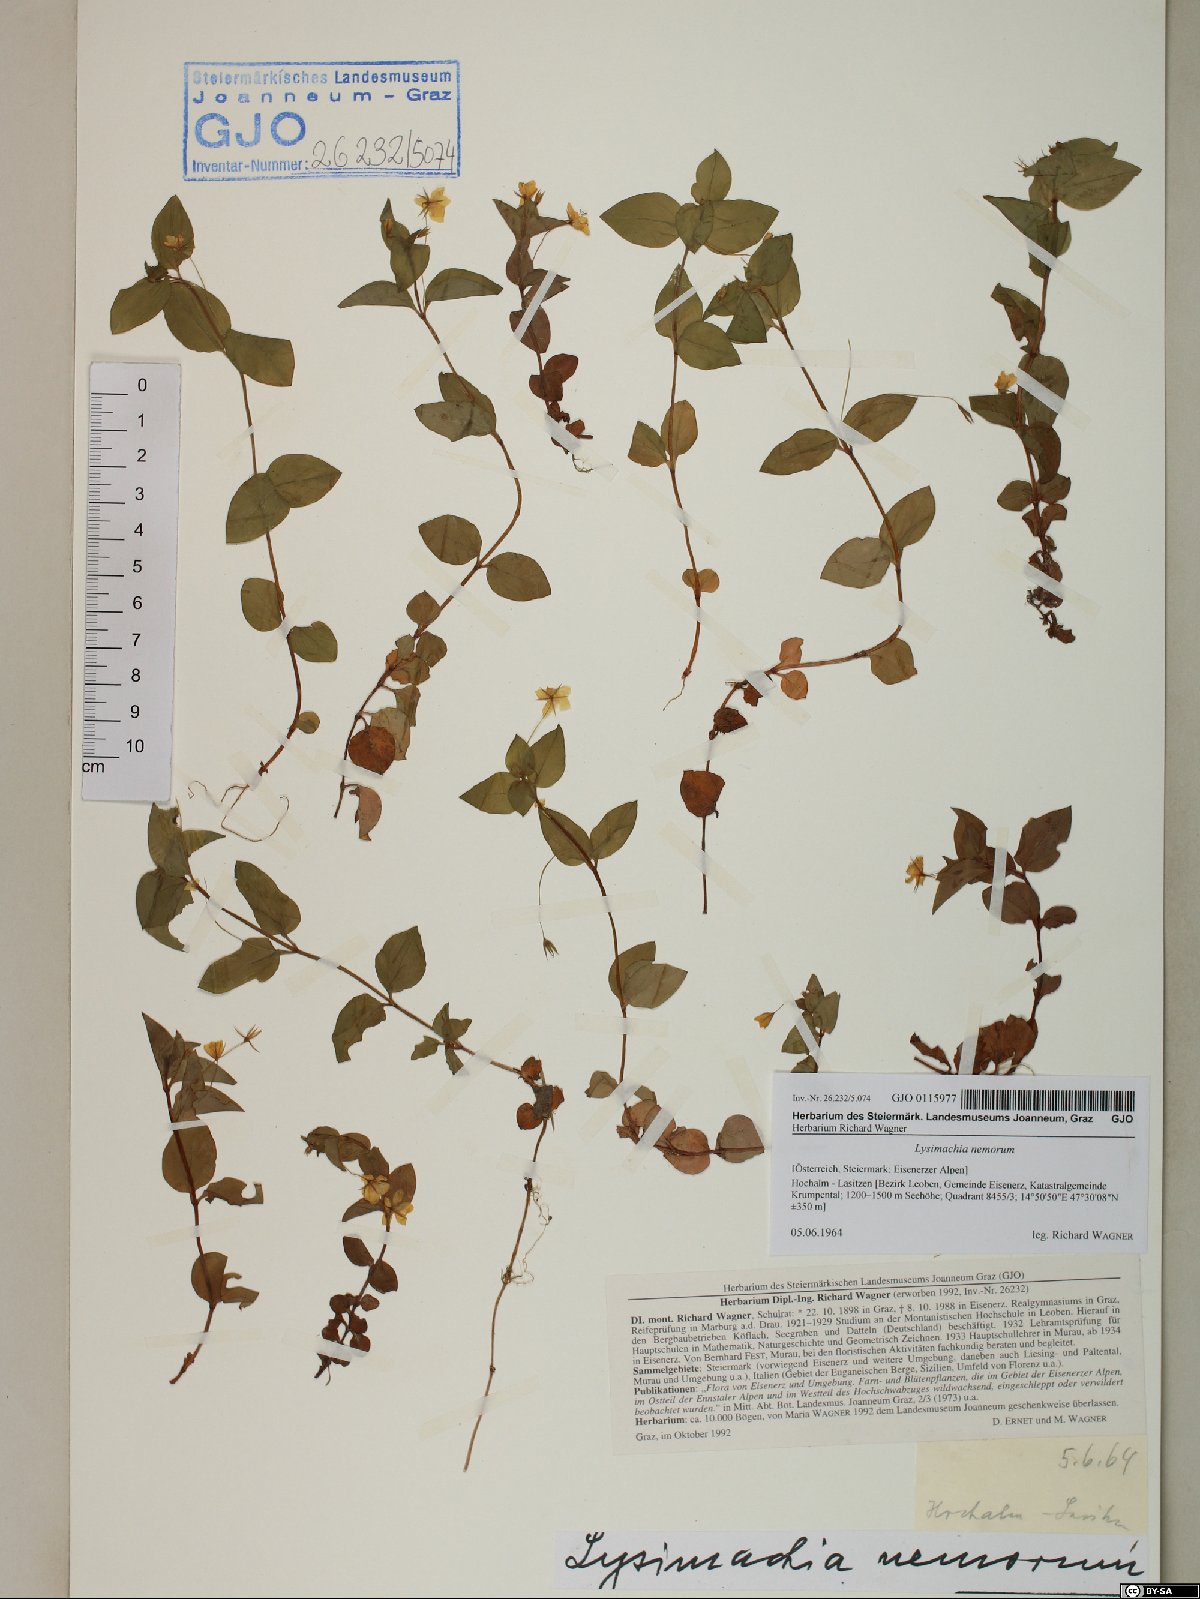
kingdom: Plantae
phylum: Tracheophyta
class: Magnoliopsida
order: Ericales
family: Primulaceae
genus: Lysimachia
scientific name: Lysimachia nemorum
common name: Yellow pimpernel
